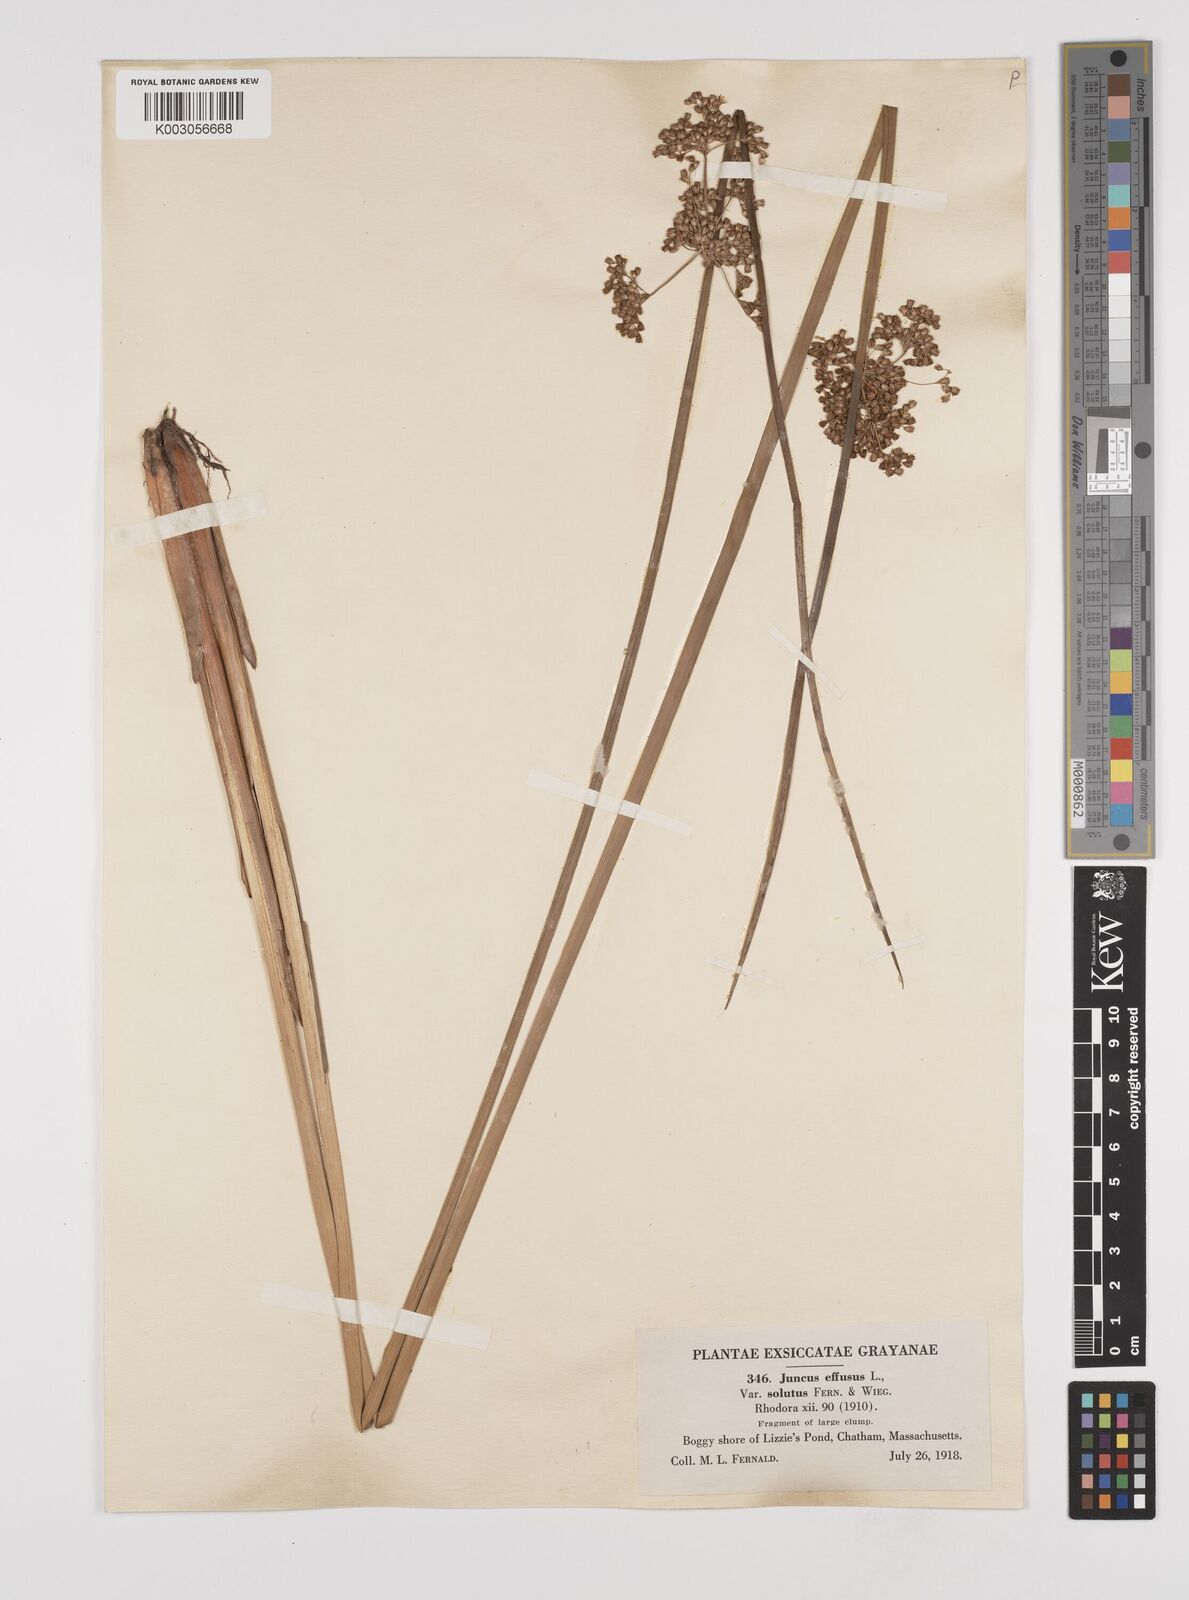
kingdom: Plantae
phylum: Tracheophyta
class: Liliopsida
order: Poales
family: Juncaceae
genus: Juncus
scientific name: Juncus effusus
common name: Soft rush
